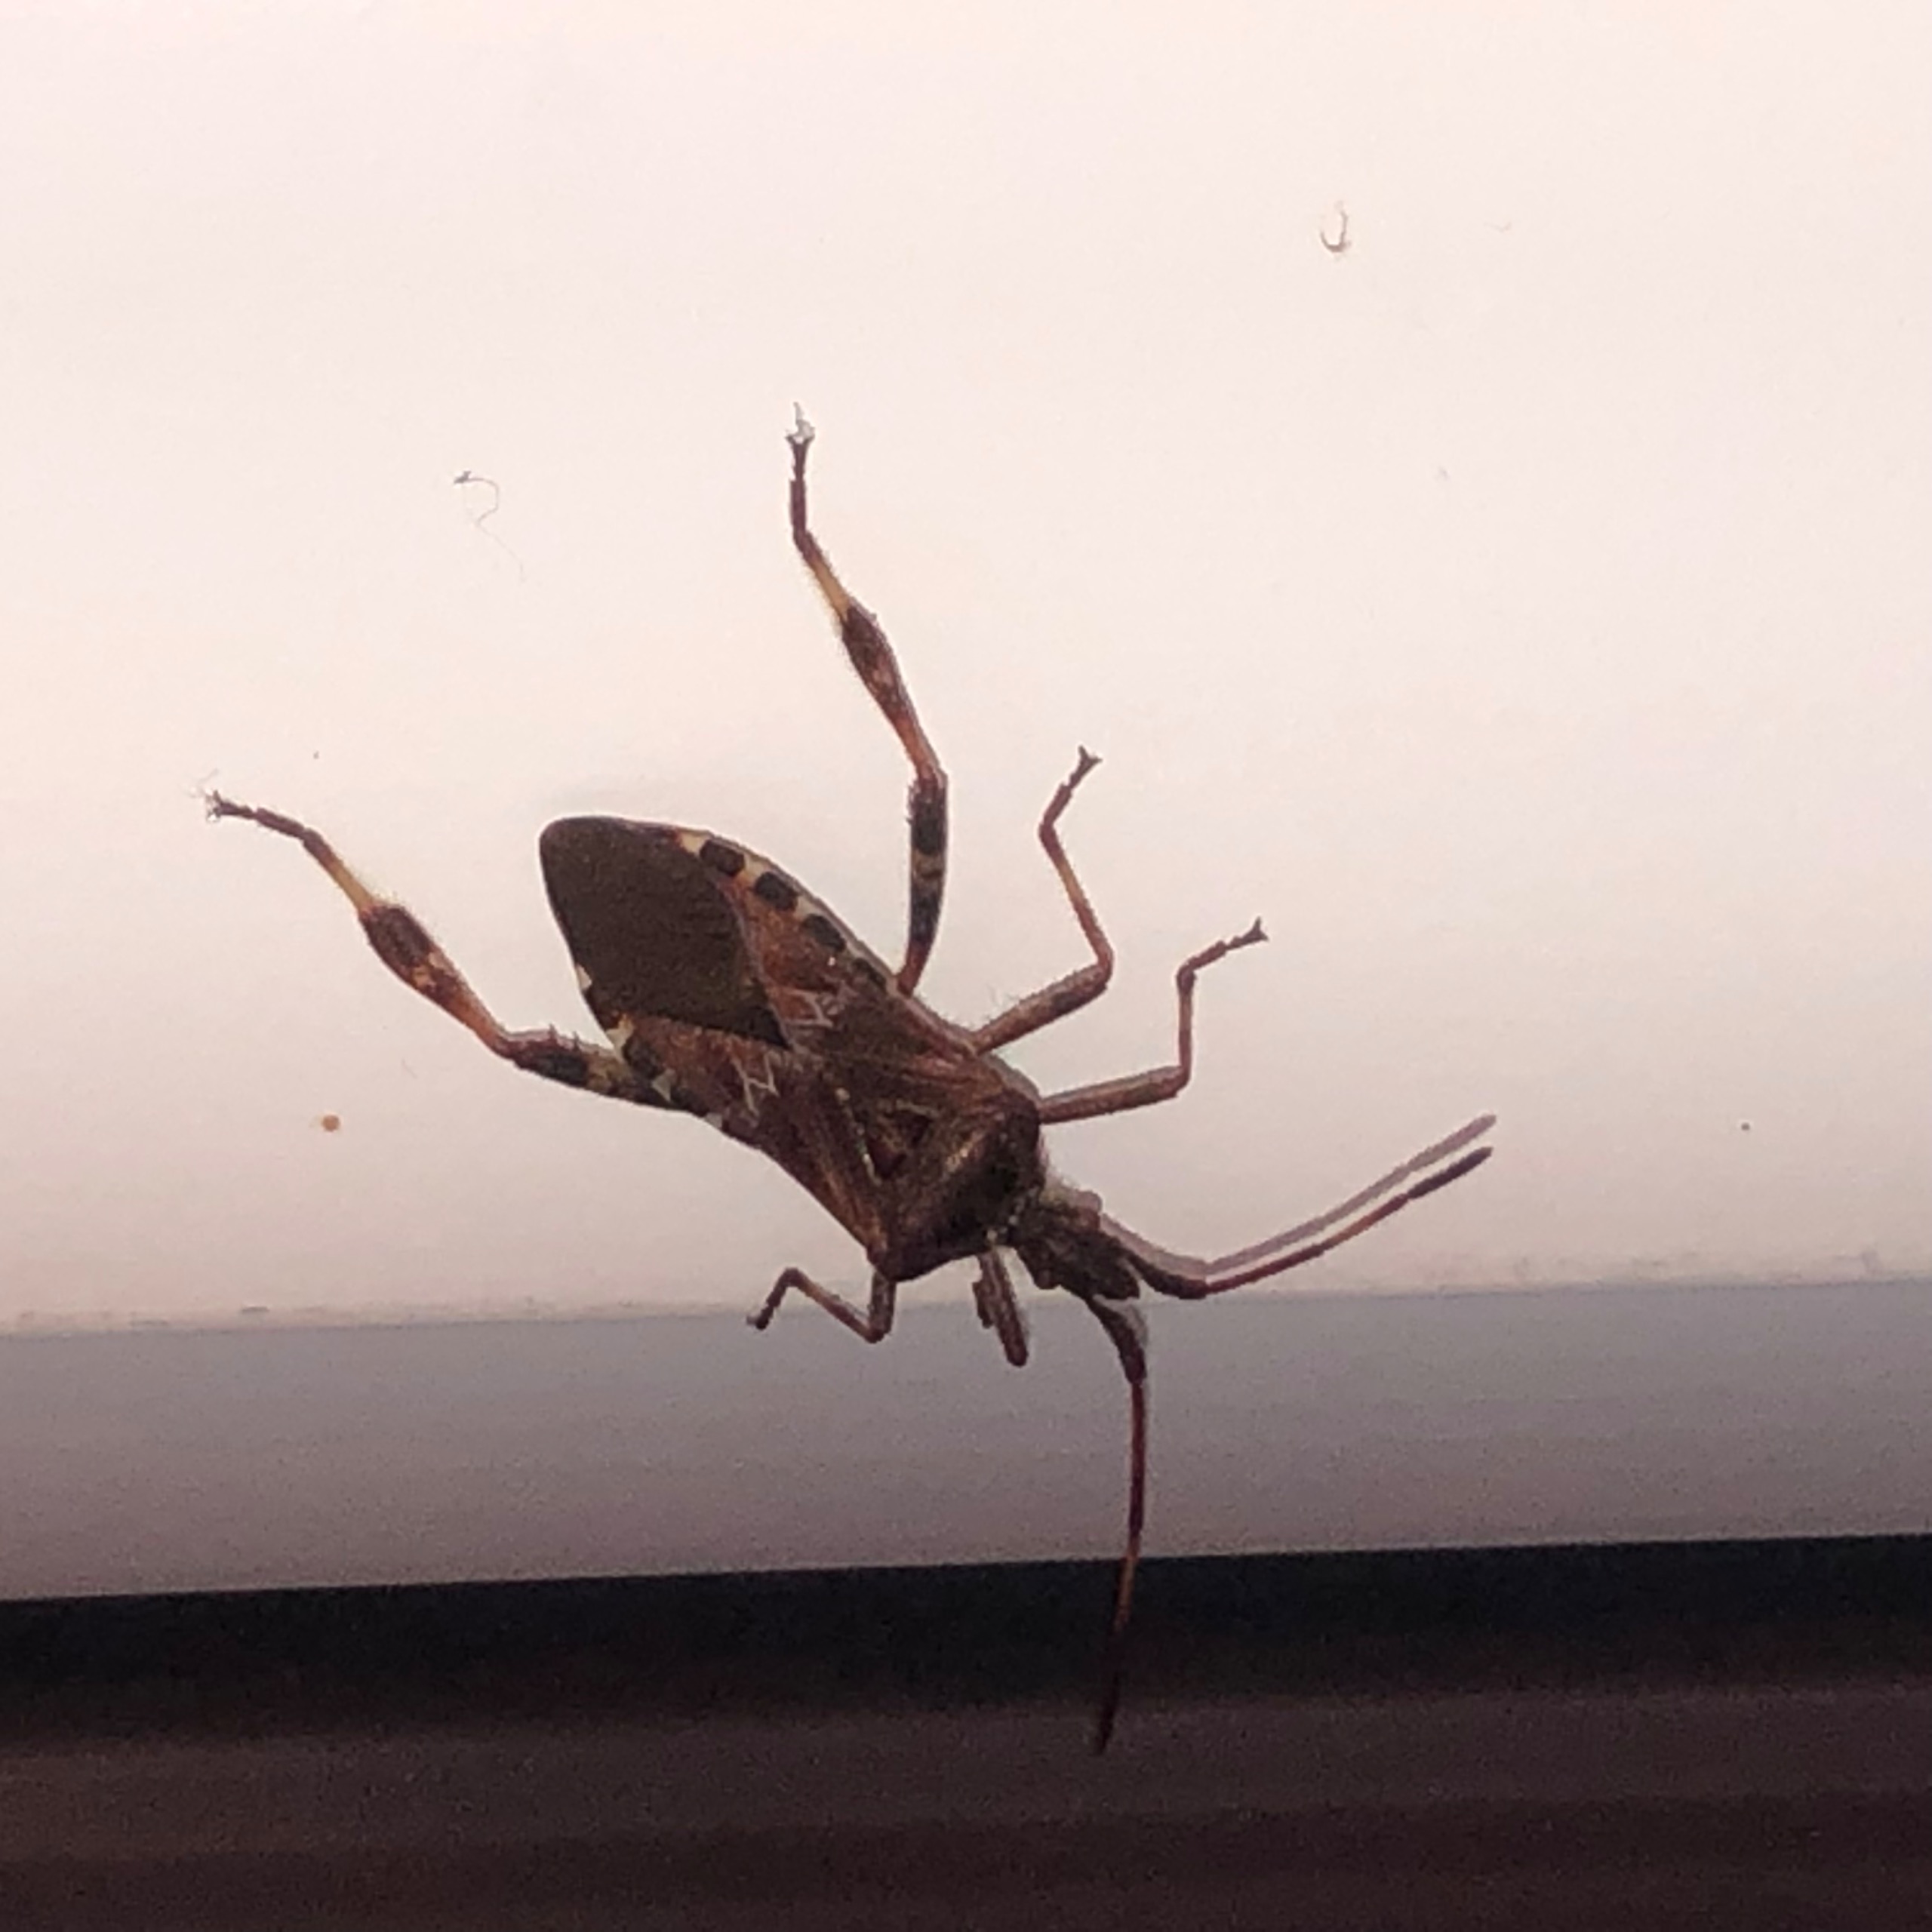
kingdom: Animalia
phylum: Arthropoda
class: Insecta
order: Hemiptera
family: Coreidae
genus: Leptoglossus
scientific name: Leptoglossus occidentalis
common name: Amerikansk fyrretæge
